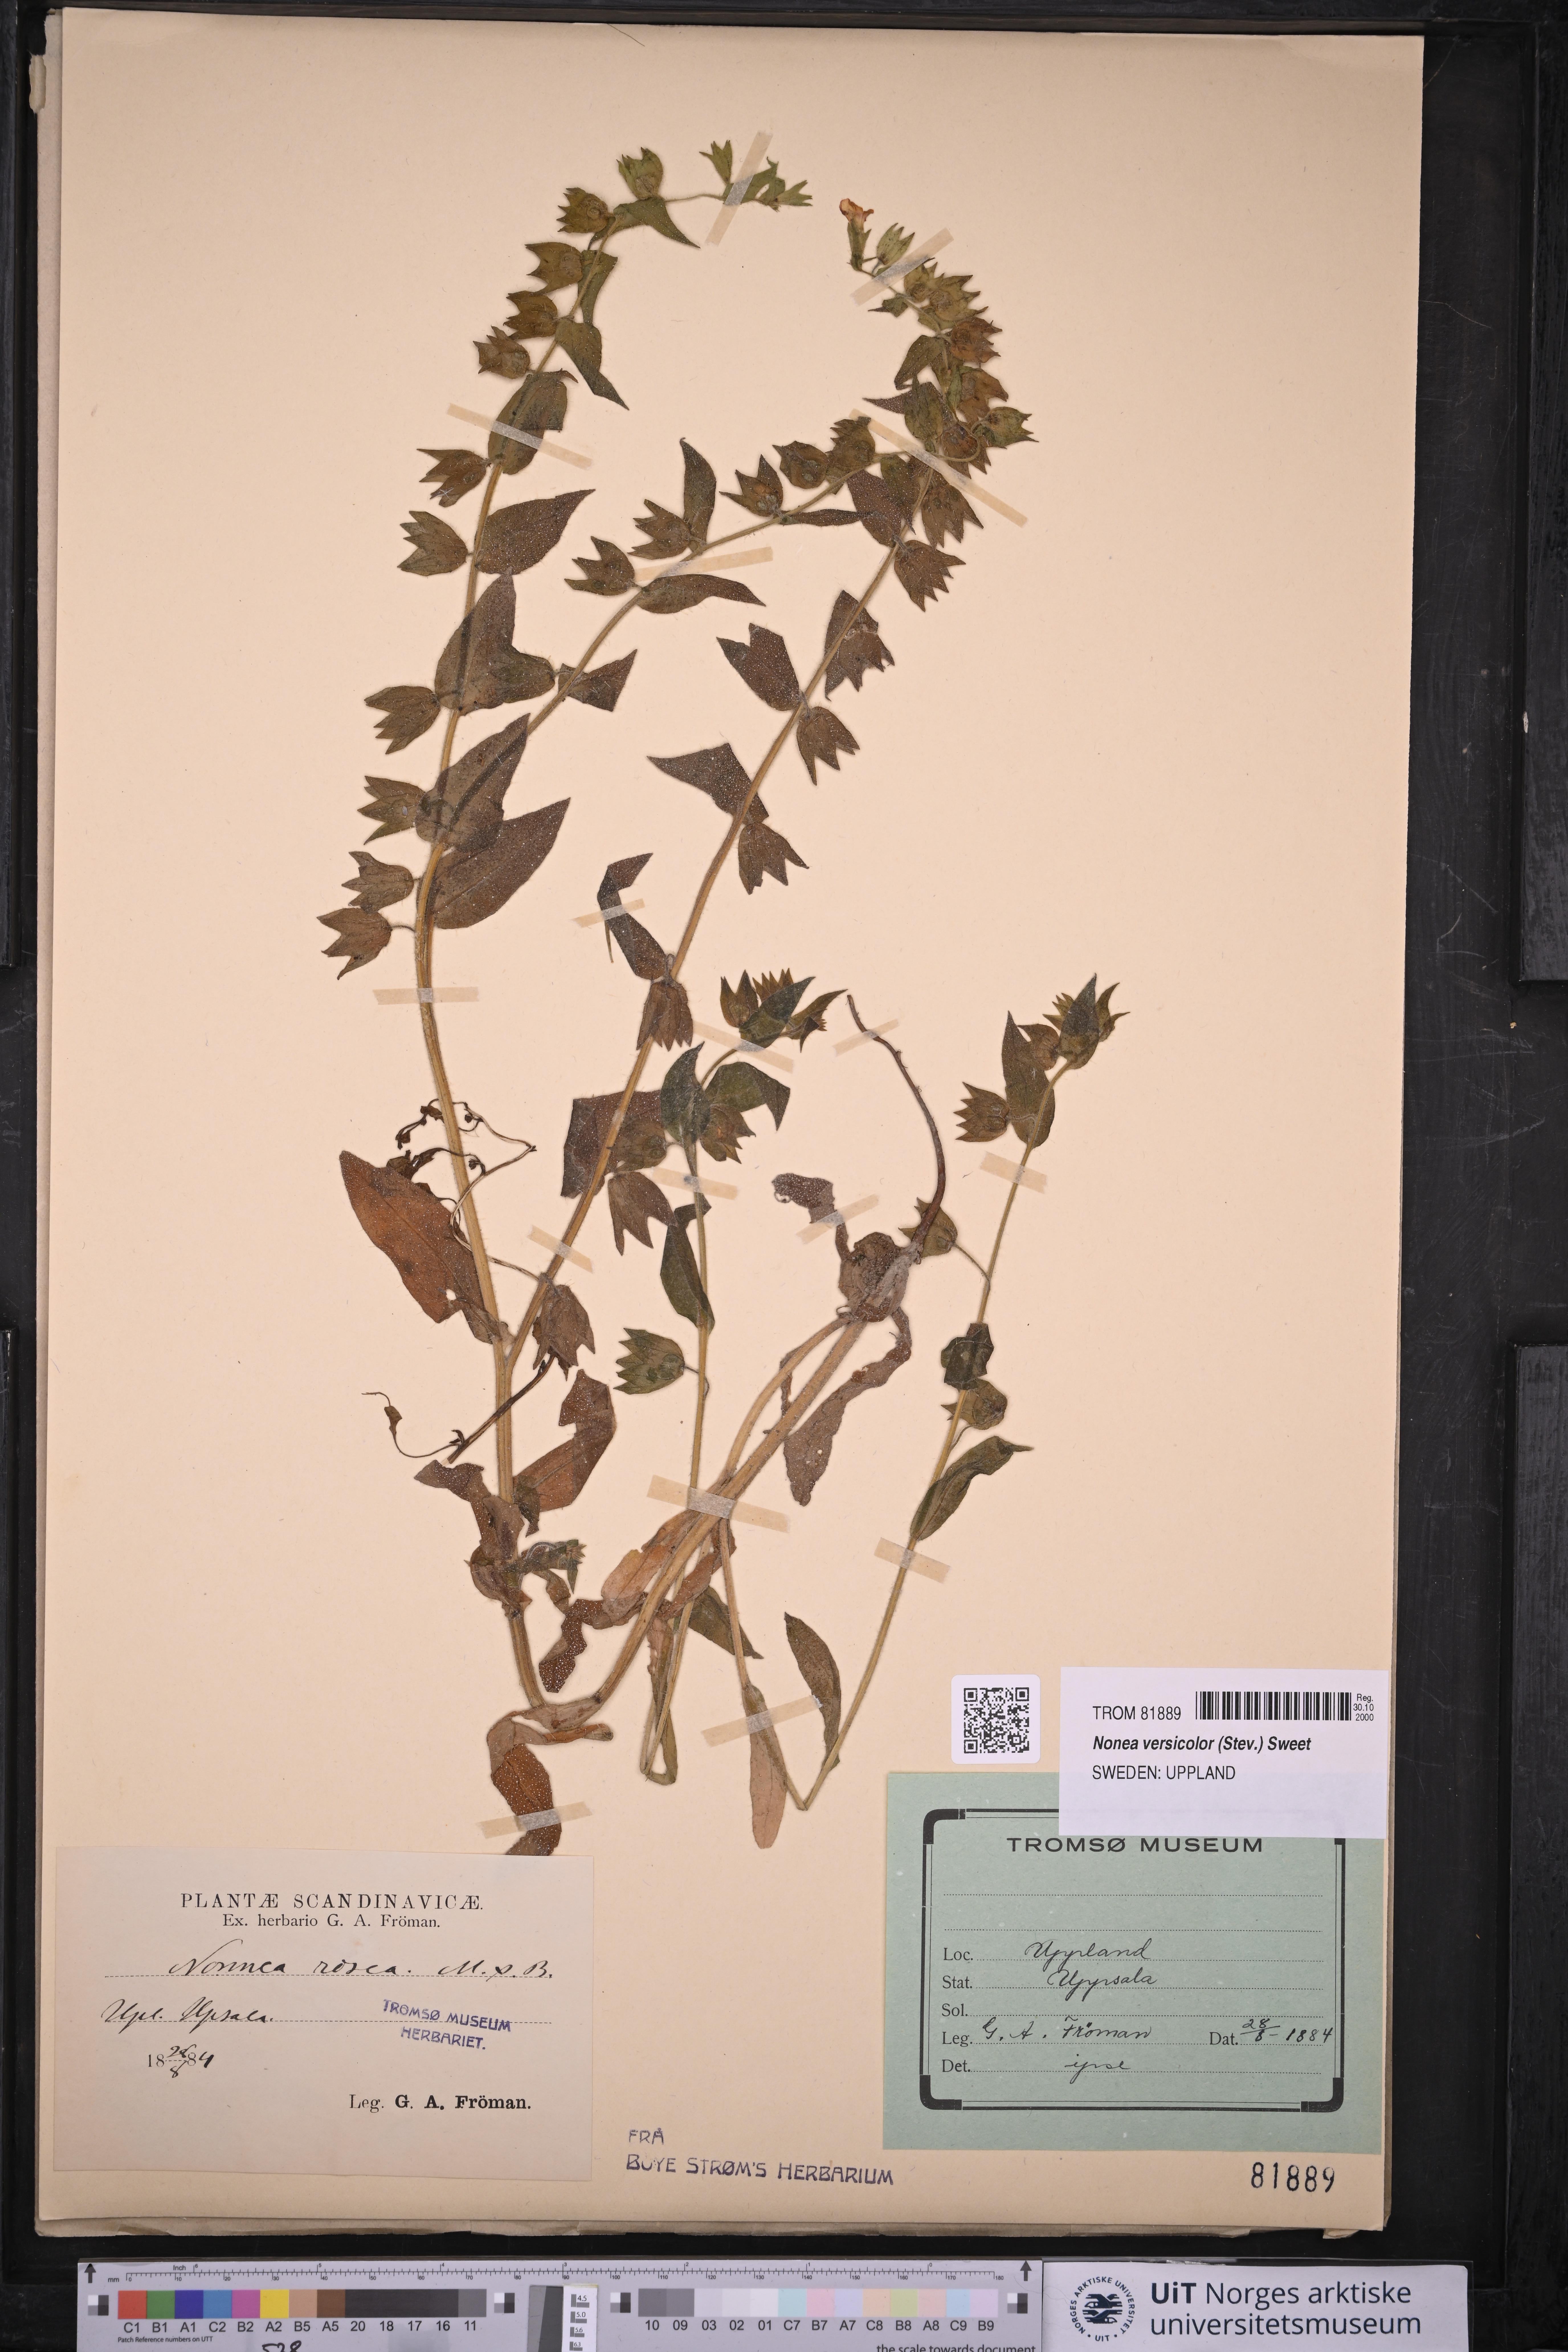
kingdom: Plantae
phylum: Tracheophyta
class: Magnoliopsida
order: Boraginales
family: Boraginaceae
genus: Nonea
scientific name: Nonea versicolor
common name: Varied monkswort
